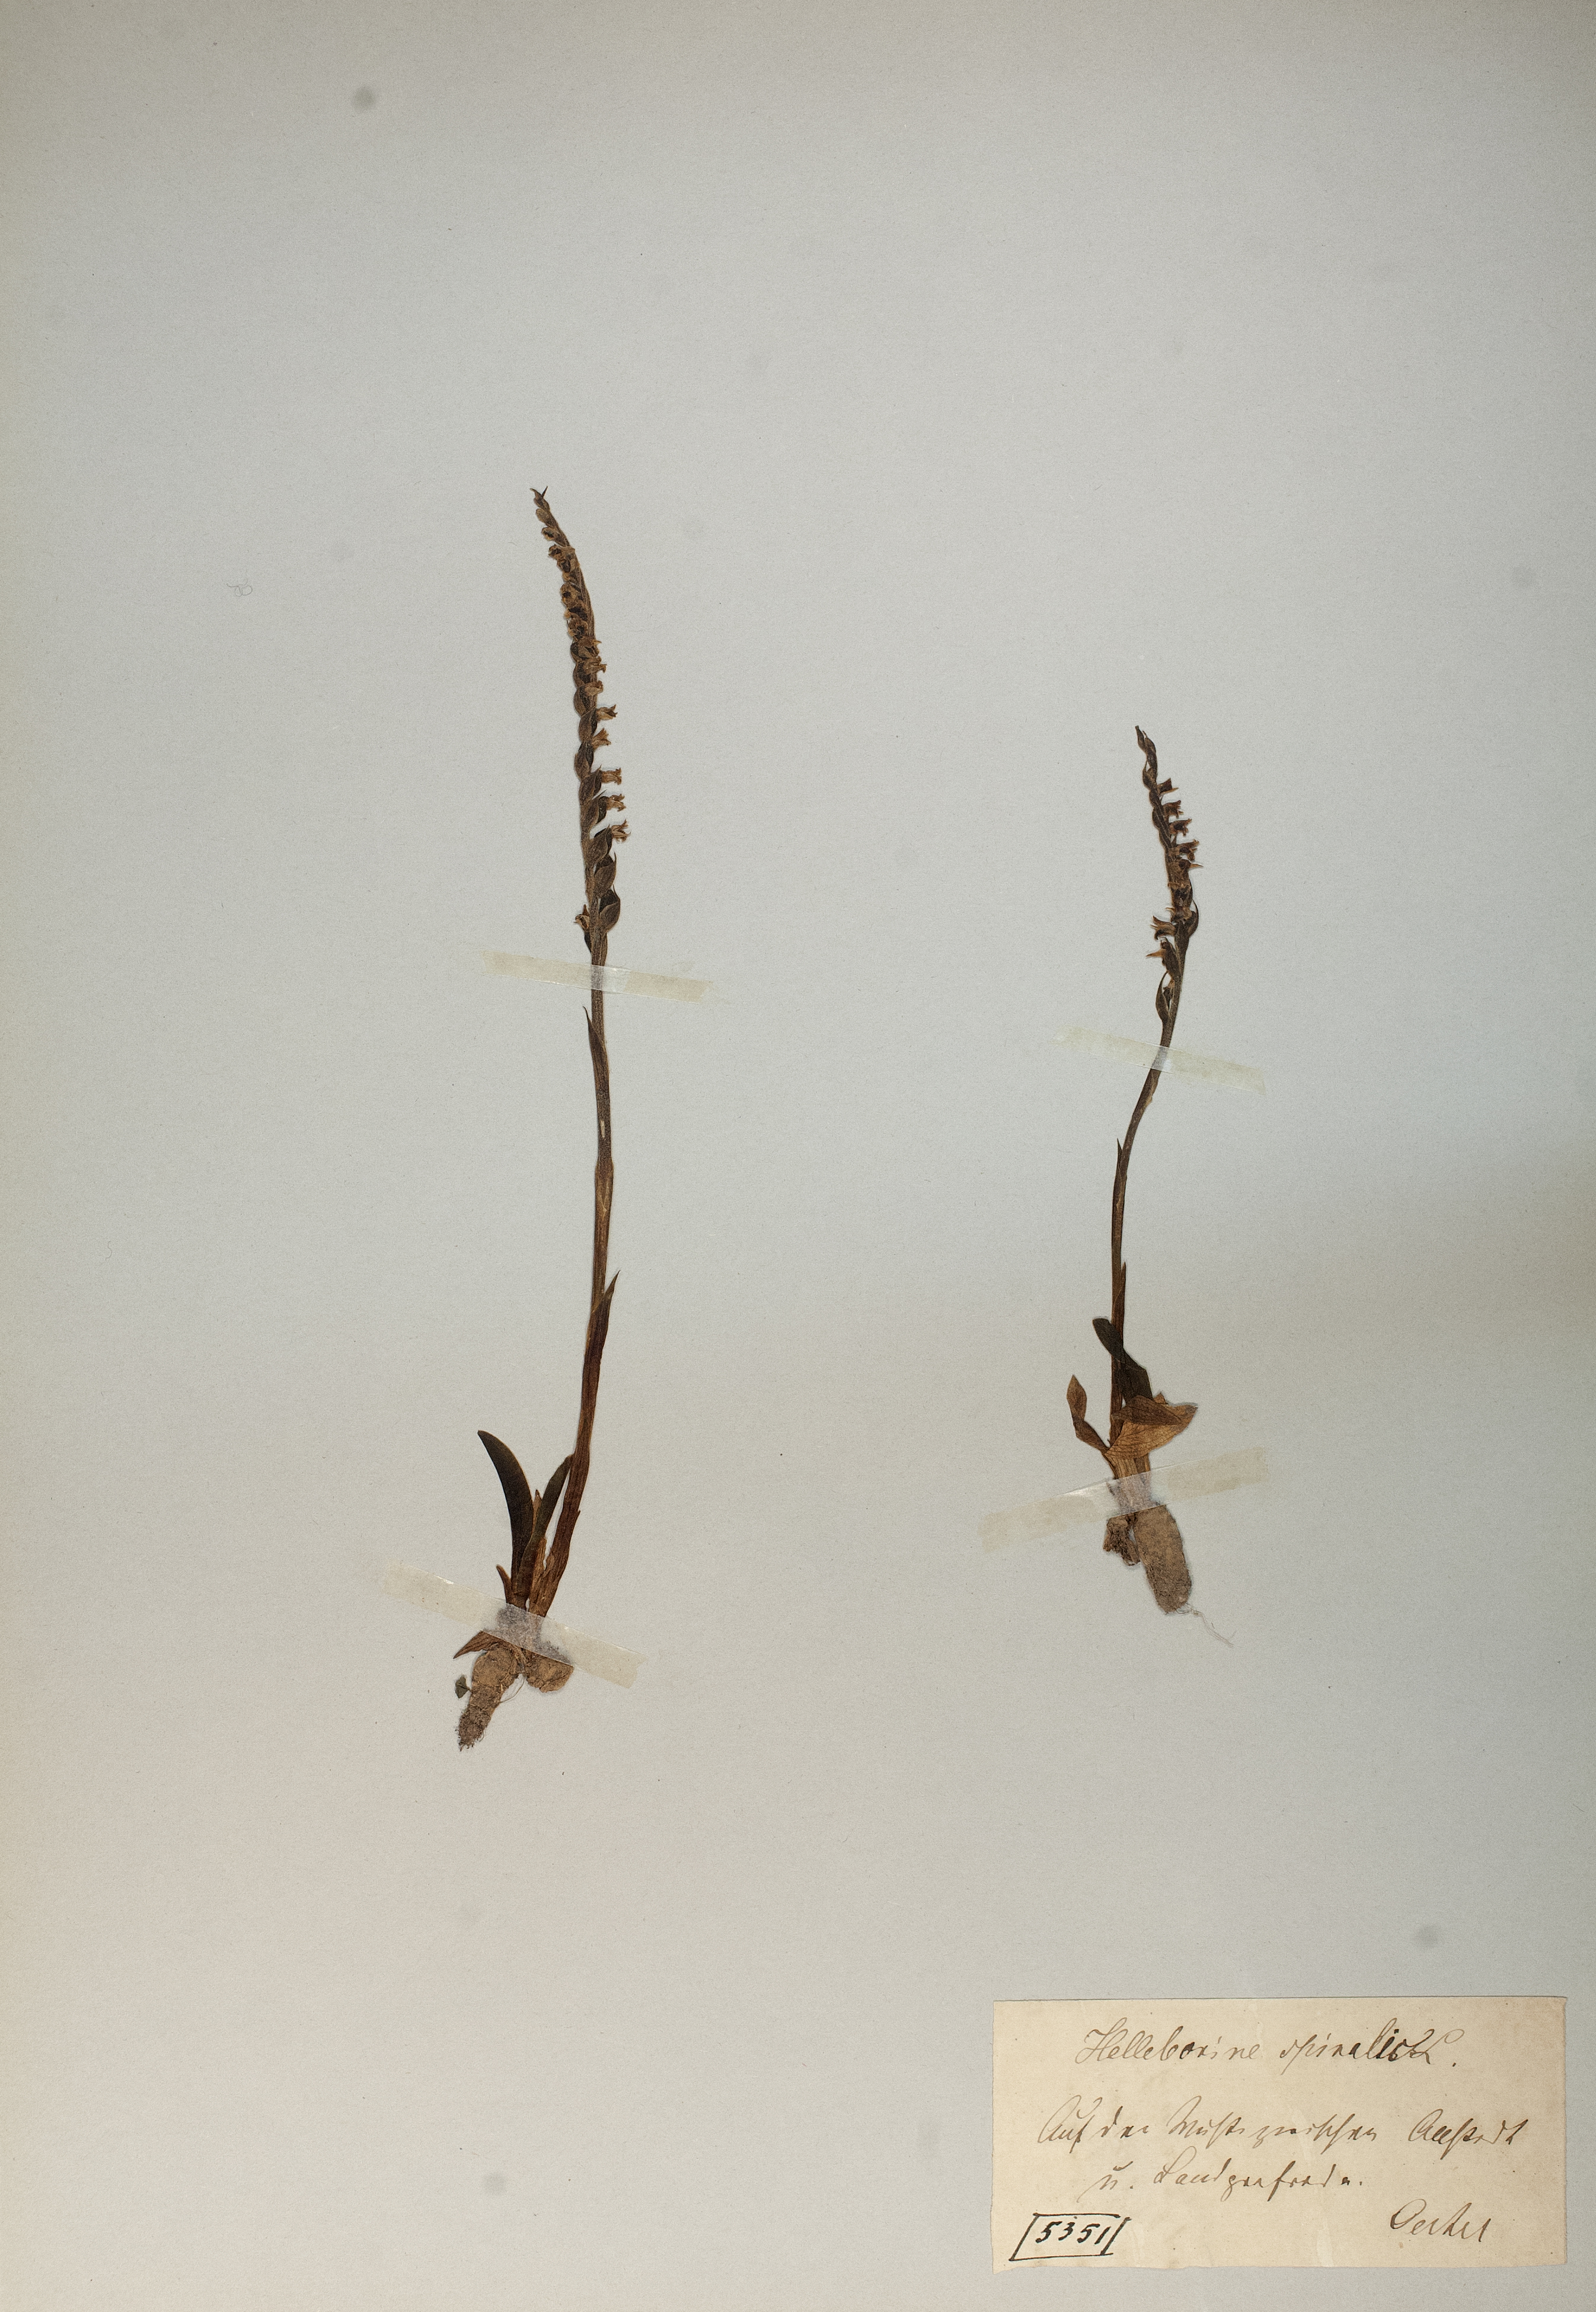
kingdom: Plantae
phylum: Tracheophyta
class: Liliopsida
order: Asparagales
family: Orchidaceae
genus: Spiranthes
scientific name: Spiranthes spiralis
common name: Autumn lady's-tresses
